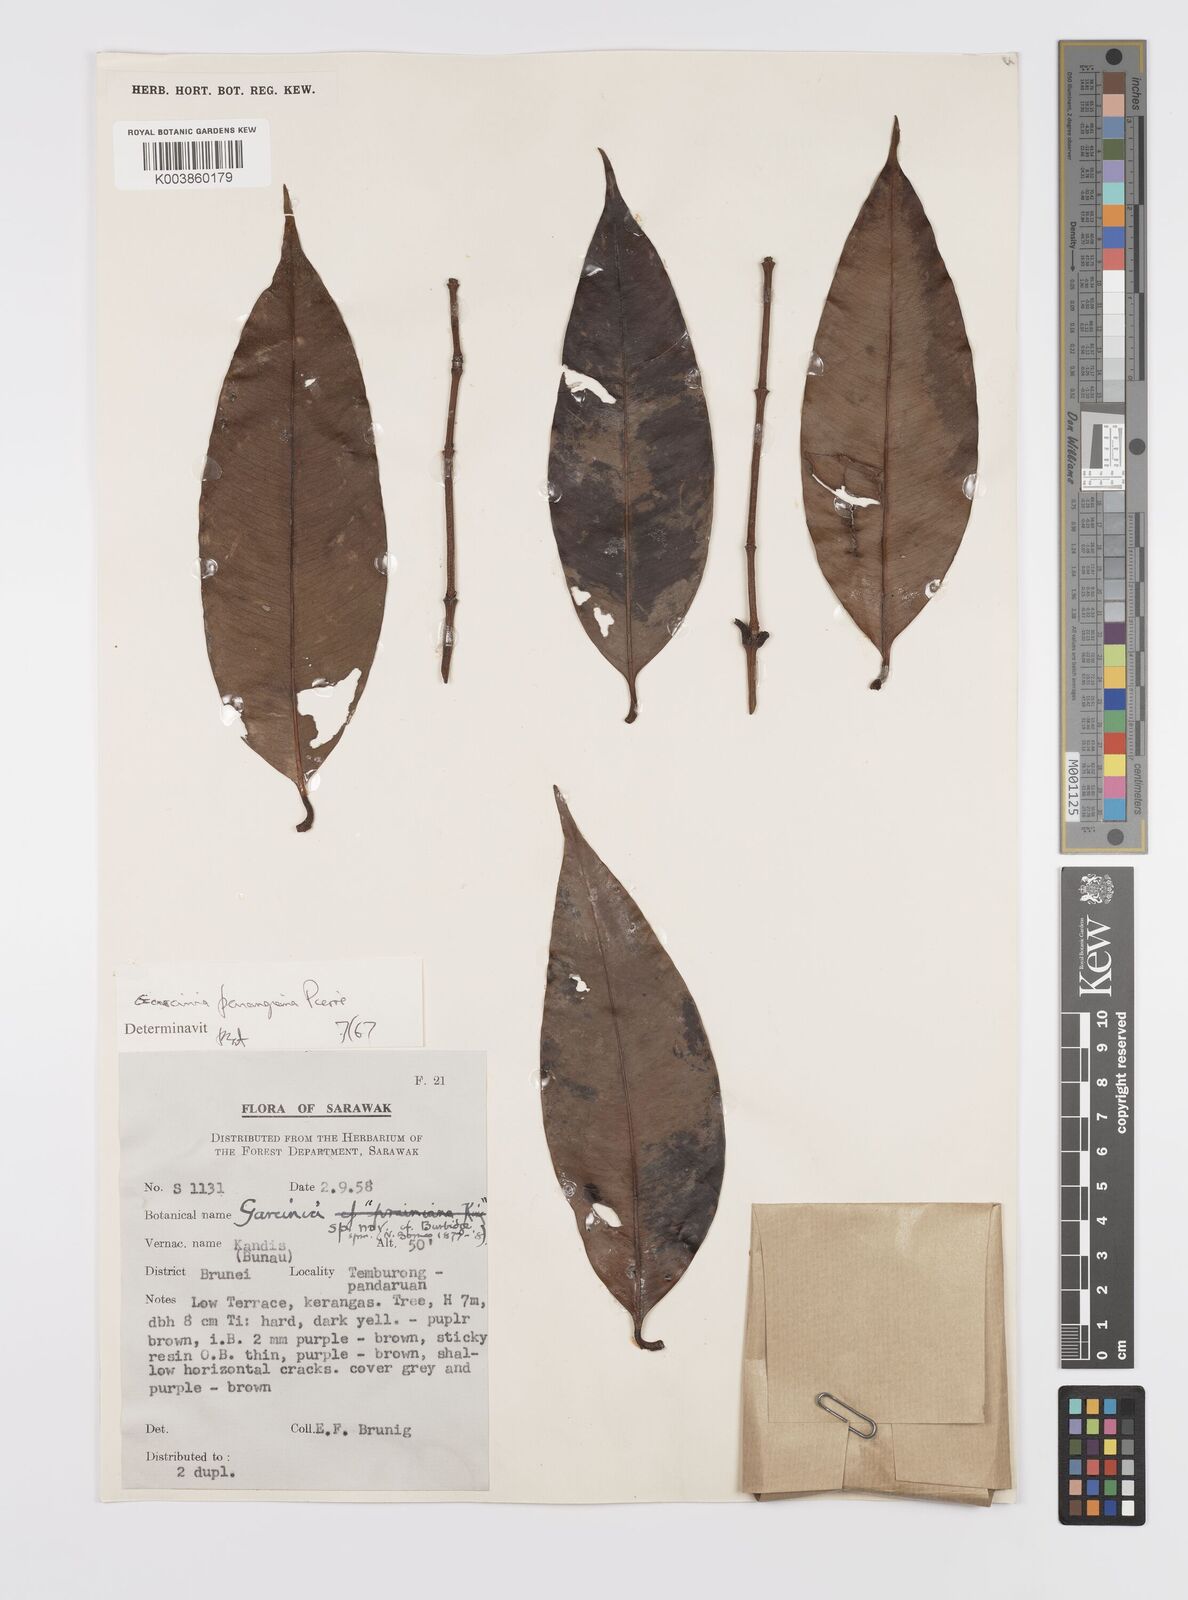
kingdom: Plantae
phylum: Tracheophyta
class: Magnoliopsida
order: Malpighiales
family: Clusiaceae
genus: Garcinia
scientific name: Garcinia penangiana
